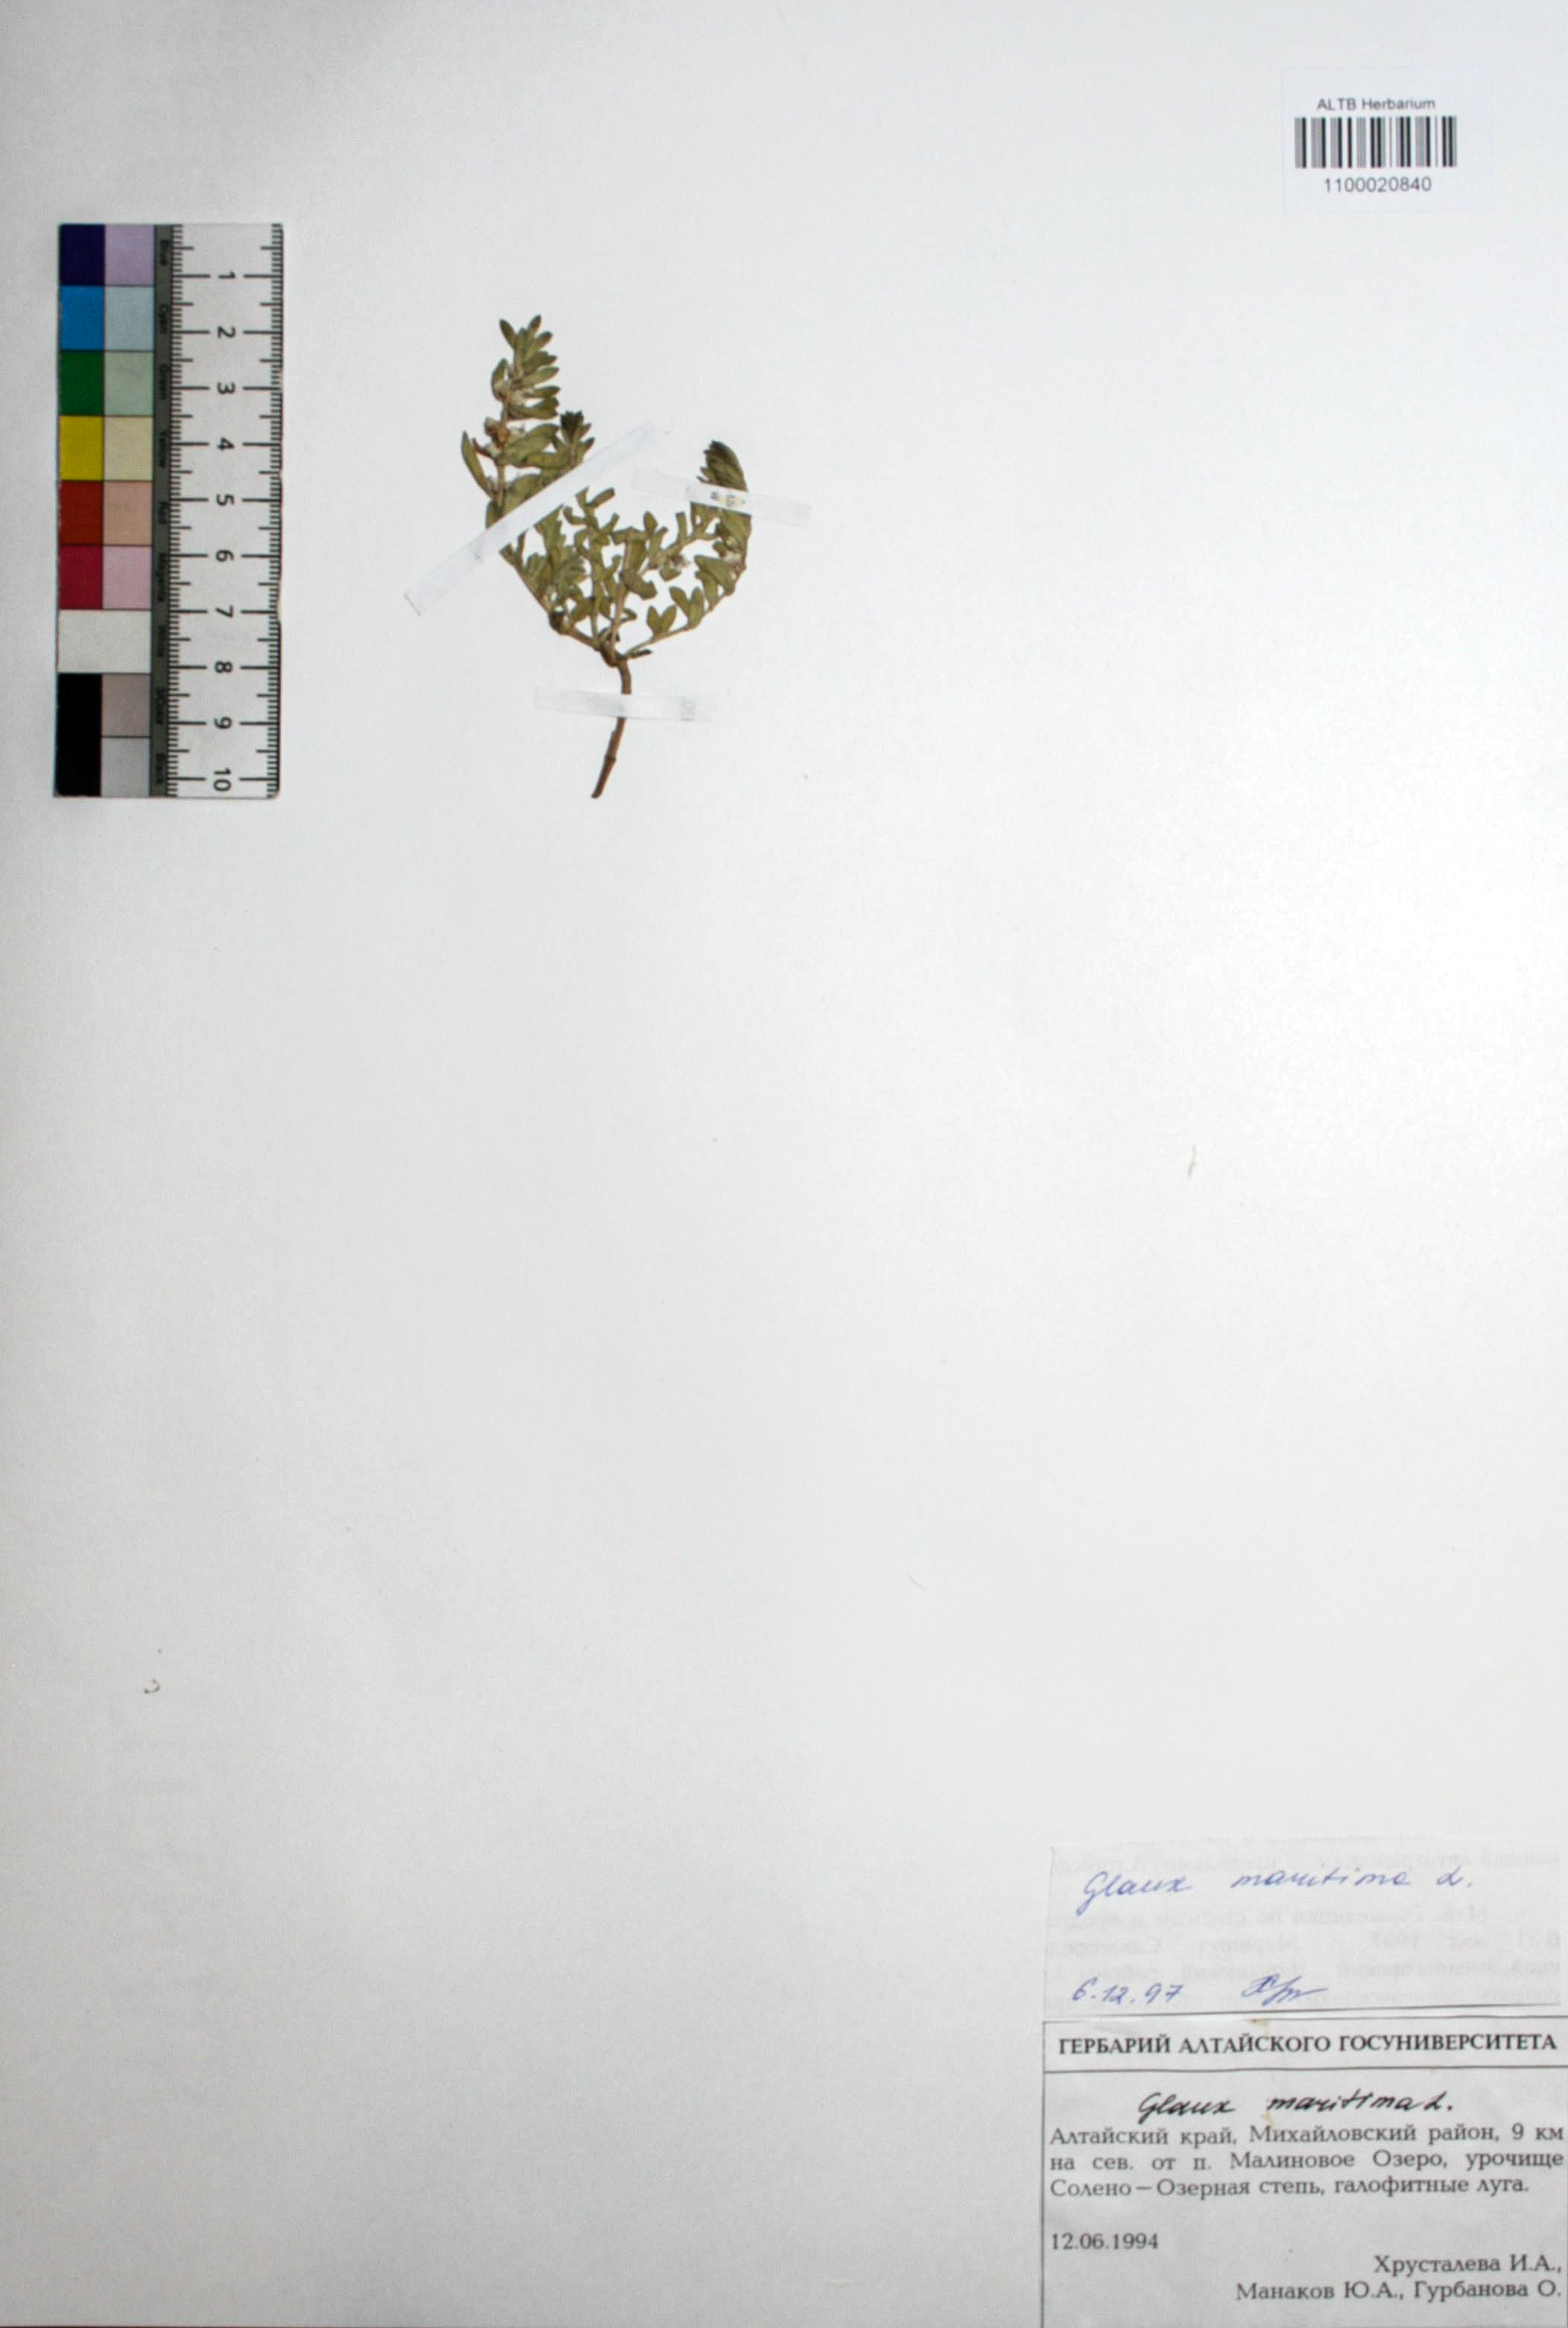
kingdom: Plantae
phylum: Tracheophyta
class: Magnoliopsida
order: Ericales
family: Primulaceae
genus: Lysimachia
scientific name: Lysimachia maritima
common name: Sea milkwort
